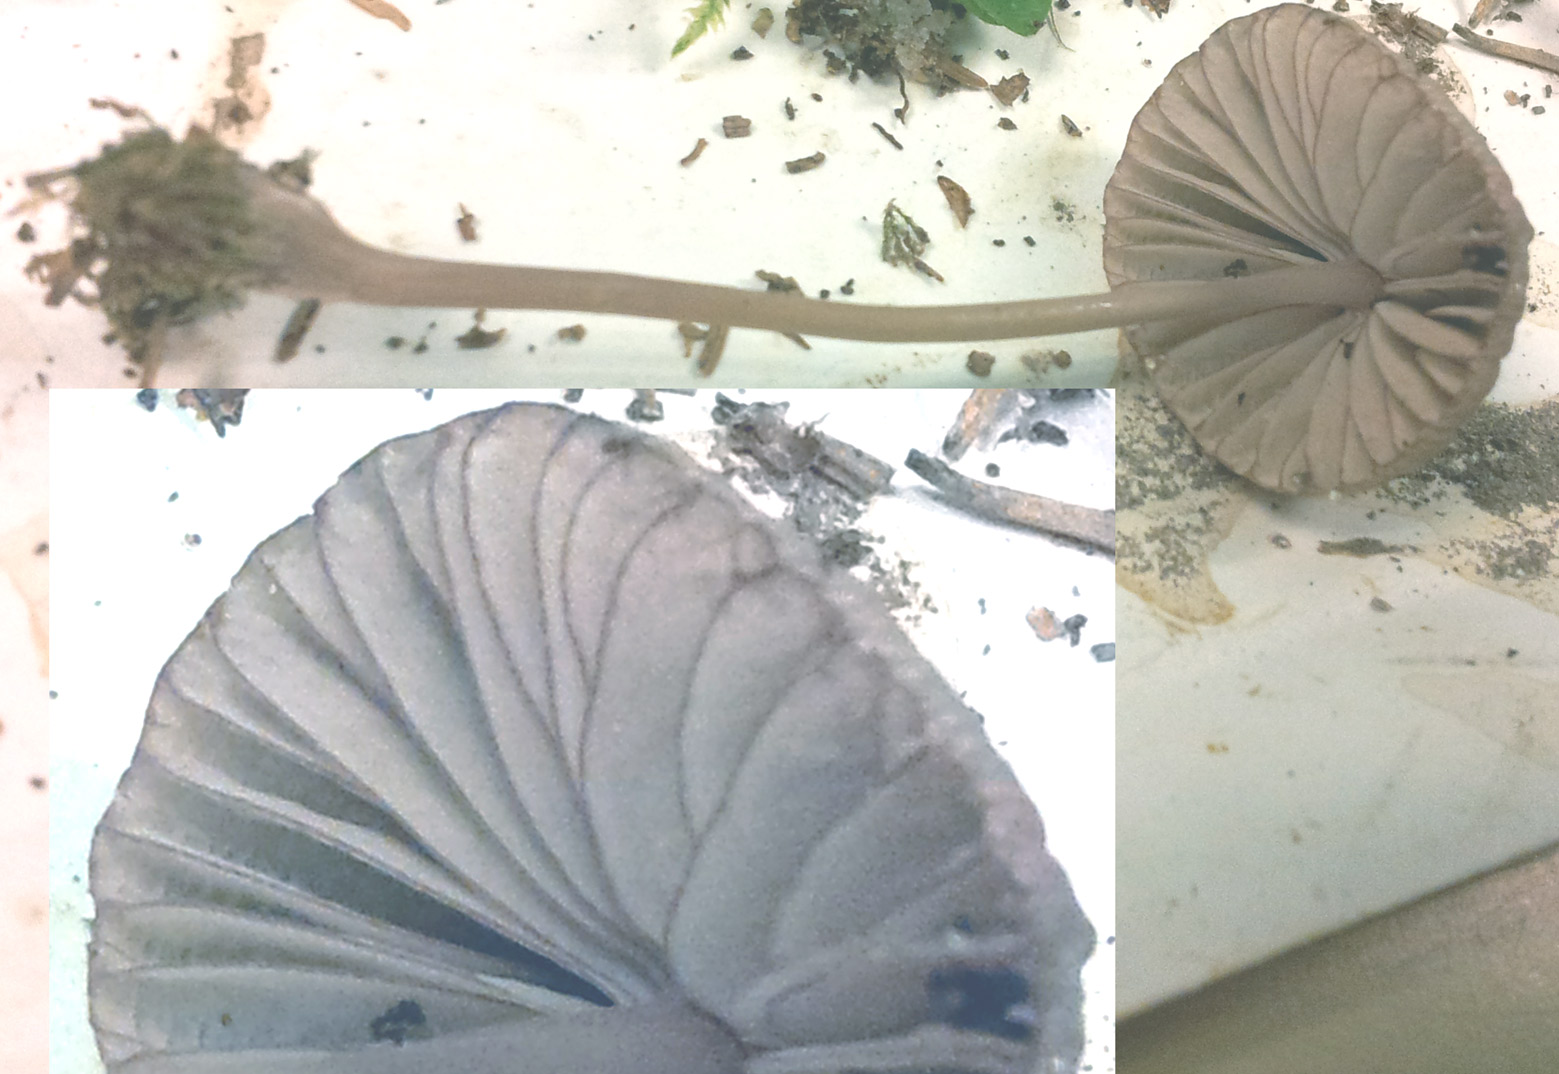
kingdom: Fungi
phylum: Basidiomycota
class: Agaricomycetes
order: Agaricales
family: Mycenaceae
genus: Mycena
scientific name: Mycena rubromarginata
